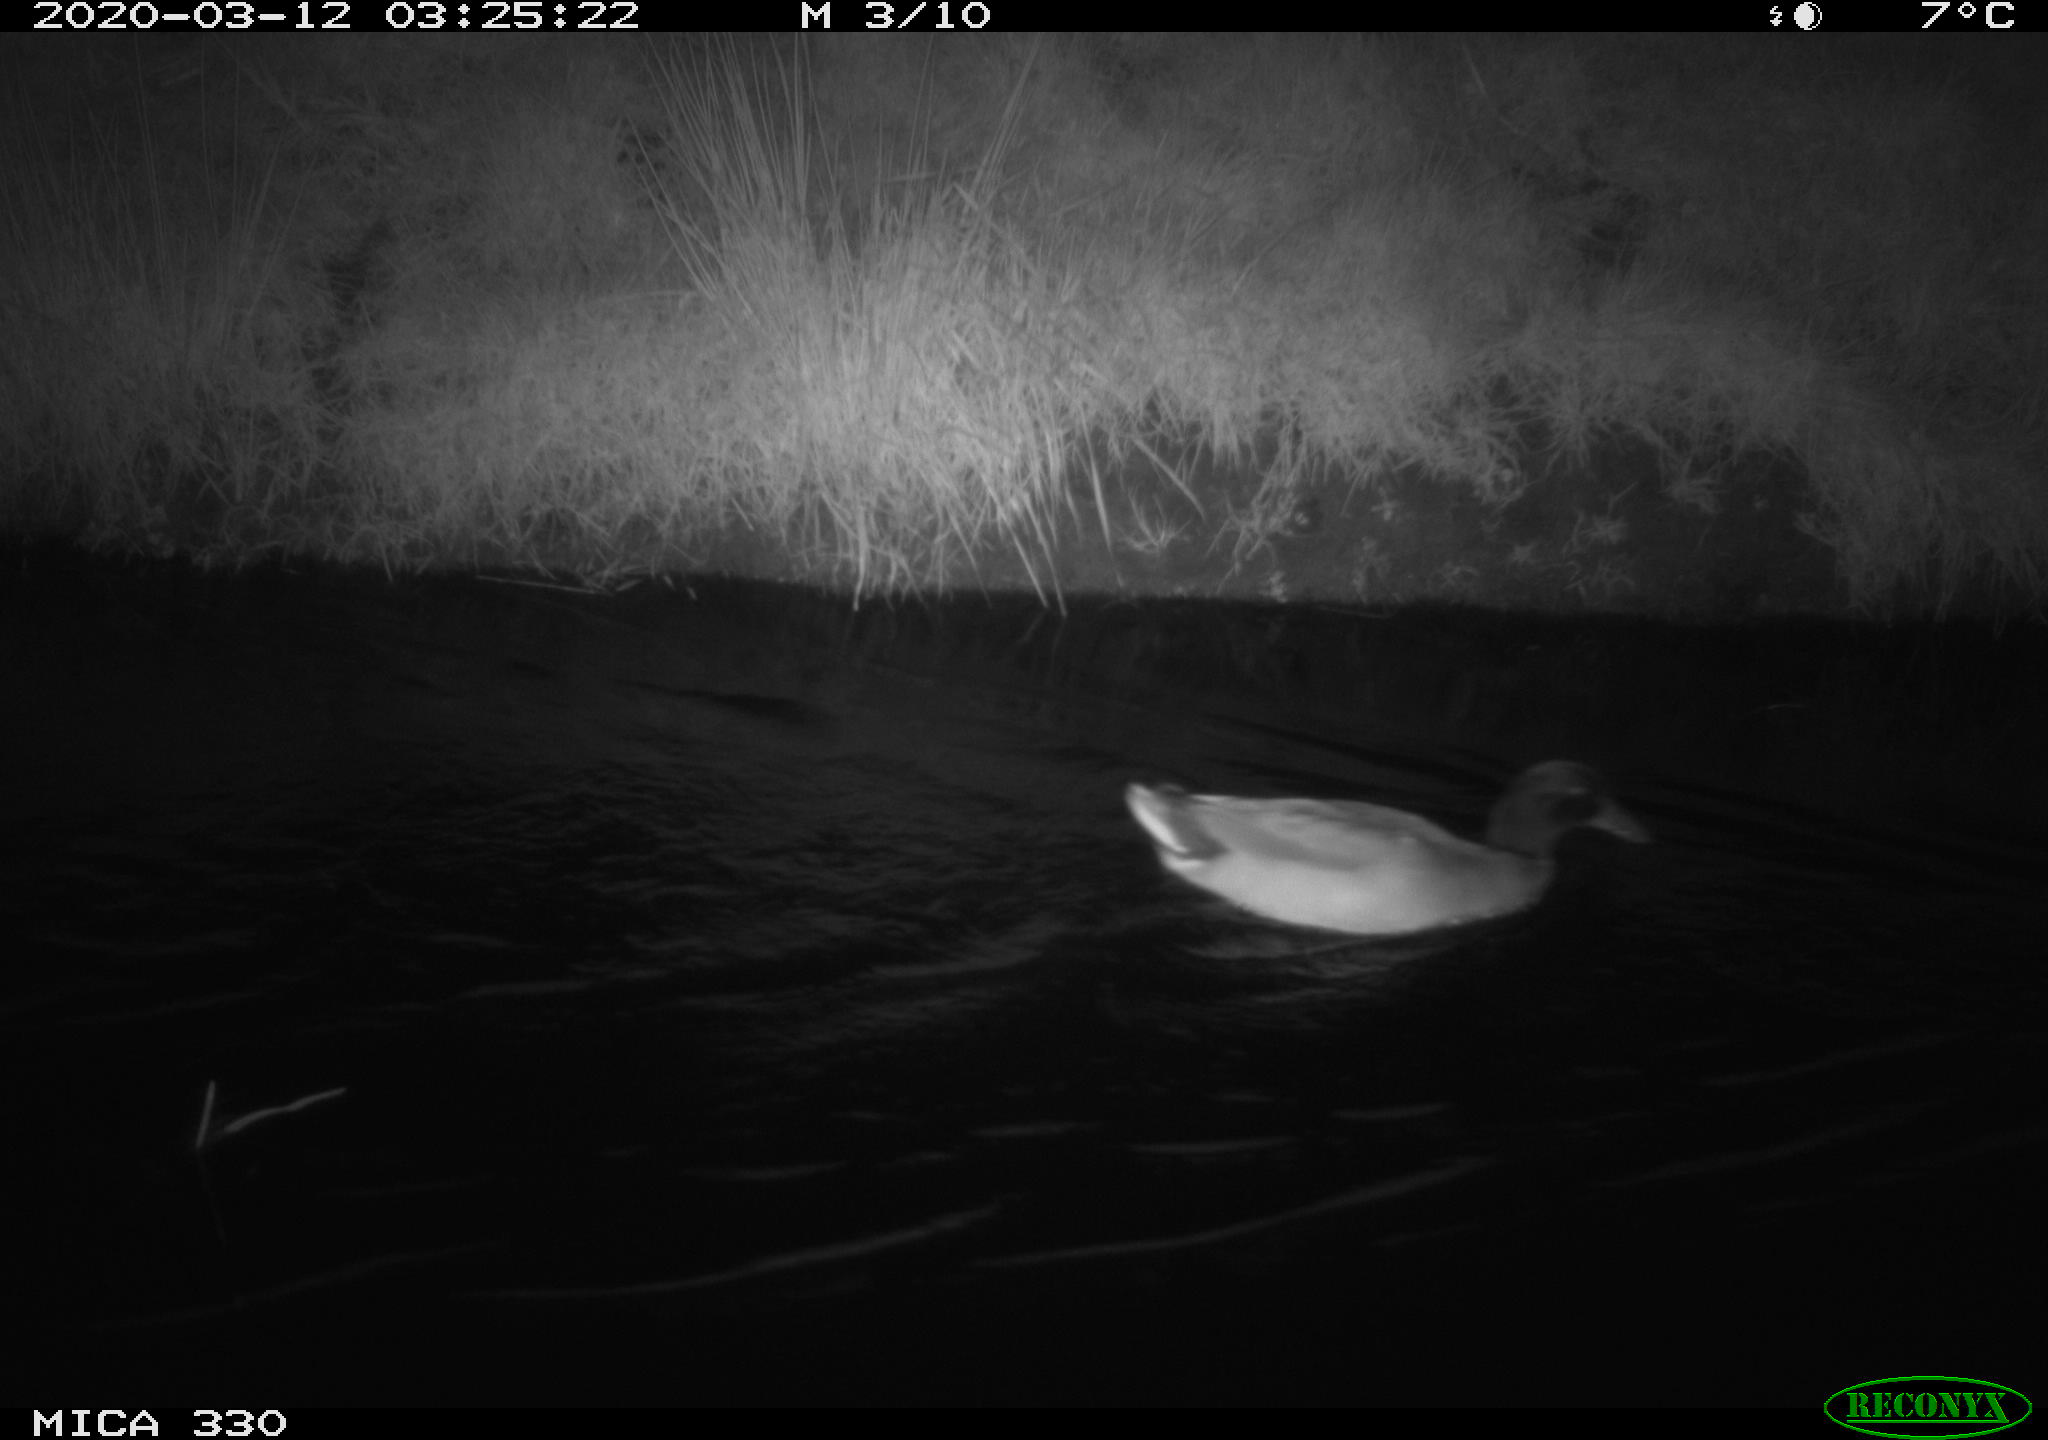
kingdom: Animalia
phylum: Chordata
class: Aves
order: Anseriformes
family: Anatidae
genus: Anas
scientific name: Anas platyrhynchos
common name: Mallard
